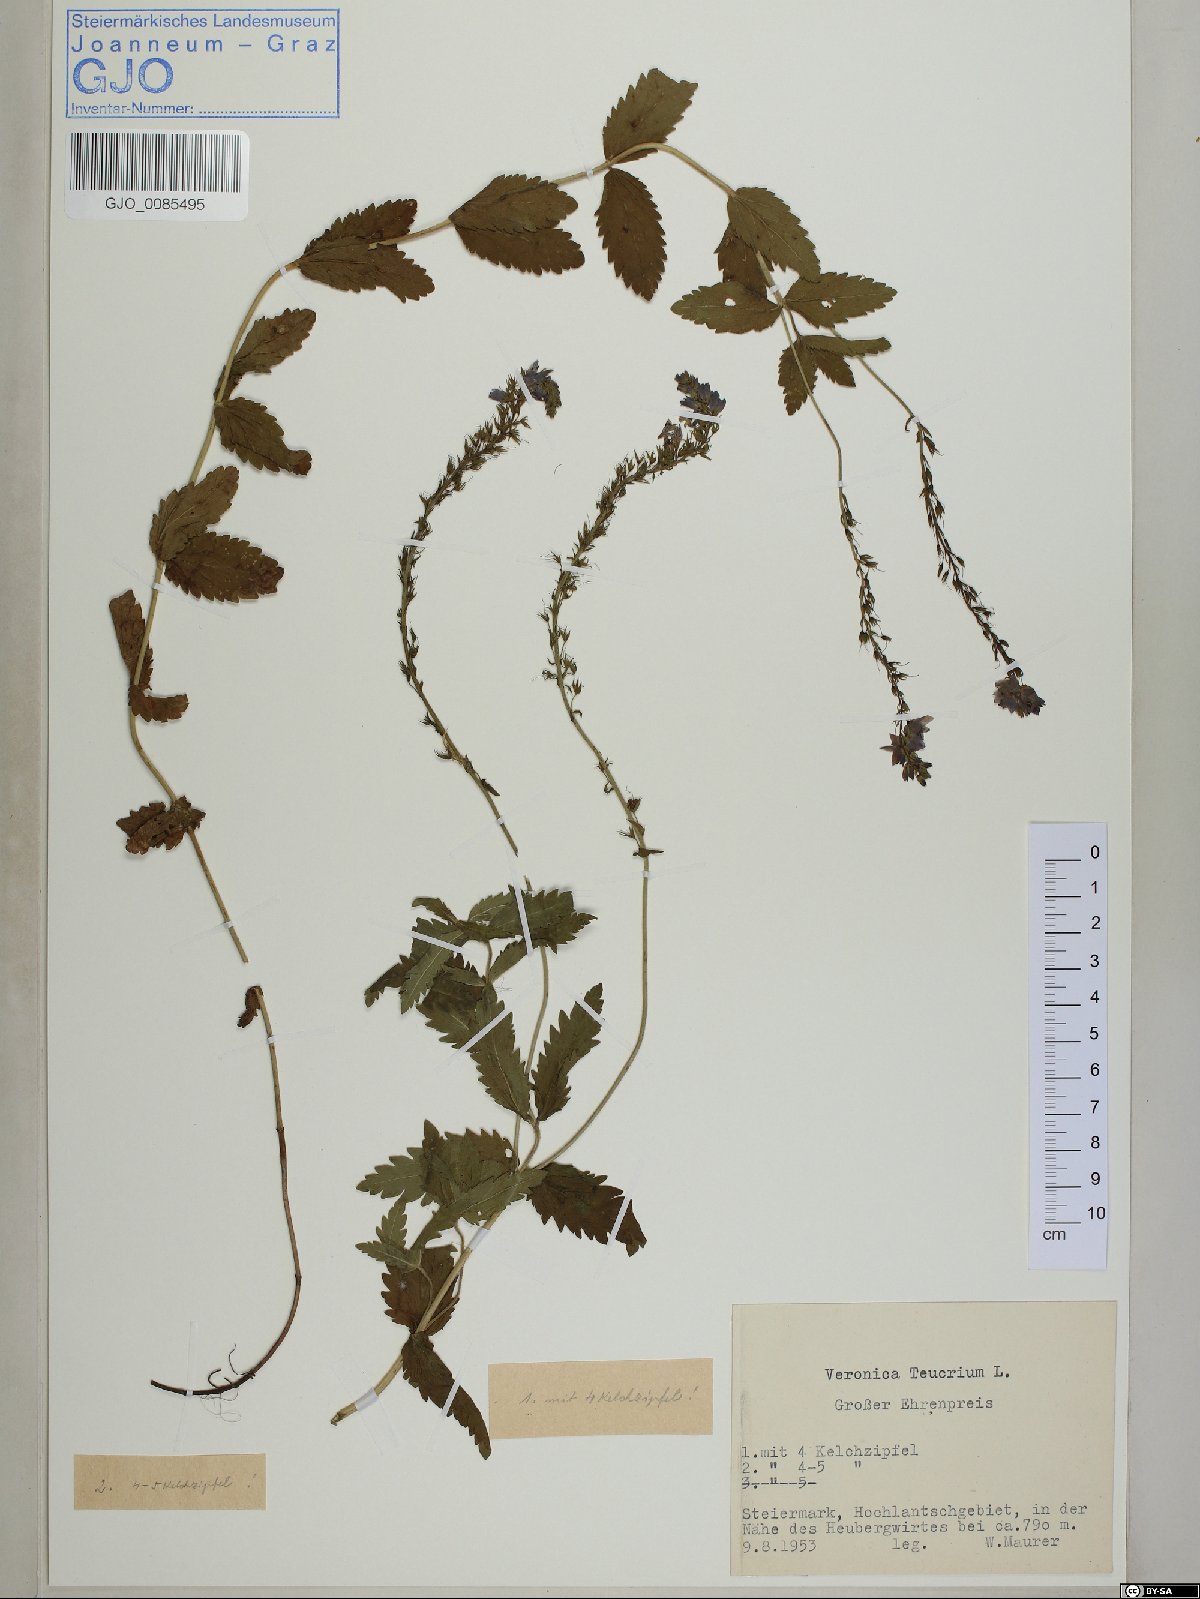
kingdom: Plantae
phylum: Tracheophyta
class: Magnoliopsida
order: Lamiales
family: Plantaginaceae
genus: Veronica
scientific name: Veronica teucrium
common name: Large speedwell
